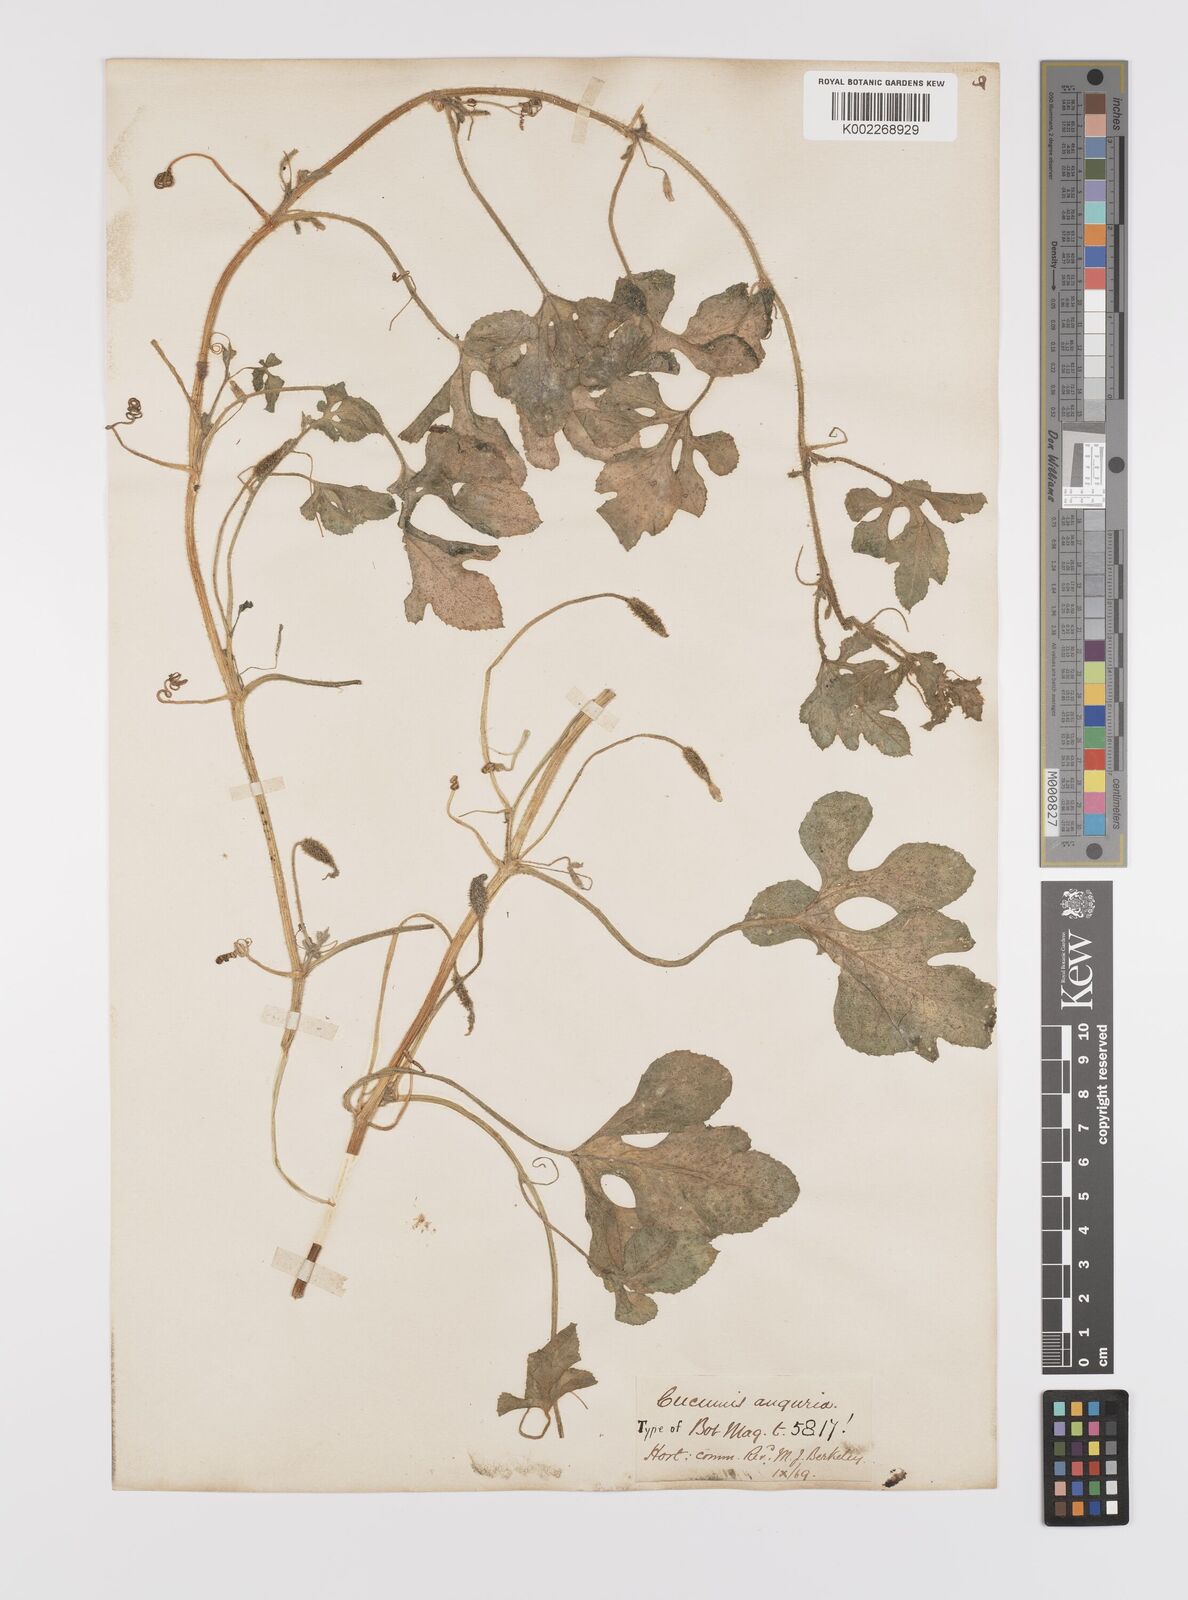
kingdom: Plantae
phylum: Tracheophyta
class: Magnoliopsida
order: Cucurbitales
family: Cucurbitaceae
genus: Cucumis
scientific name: Cucumis anguria
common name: West indian gherkin
